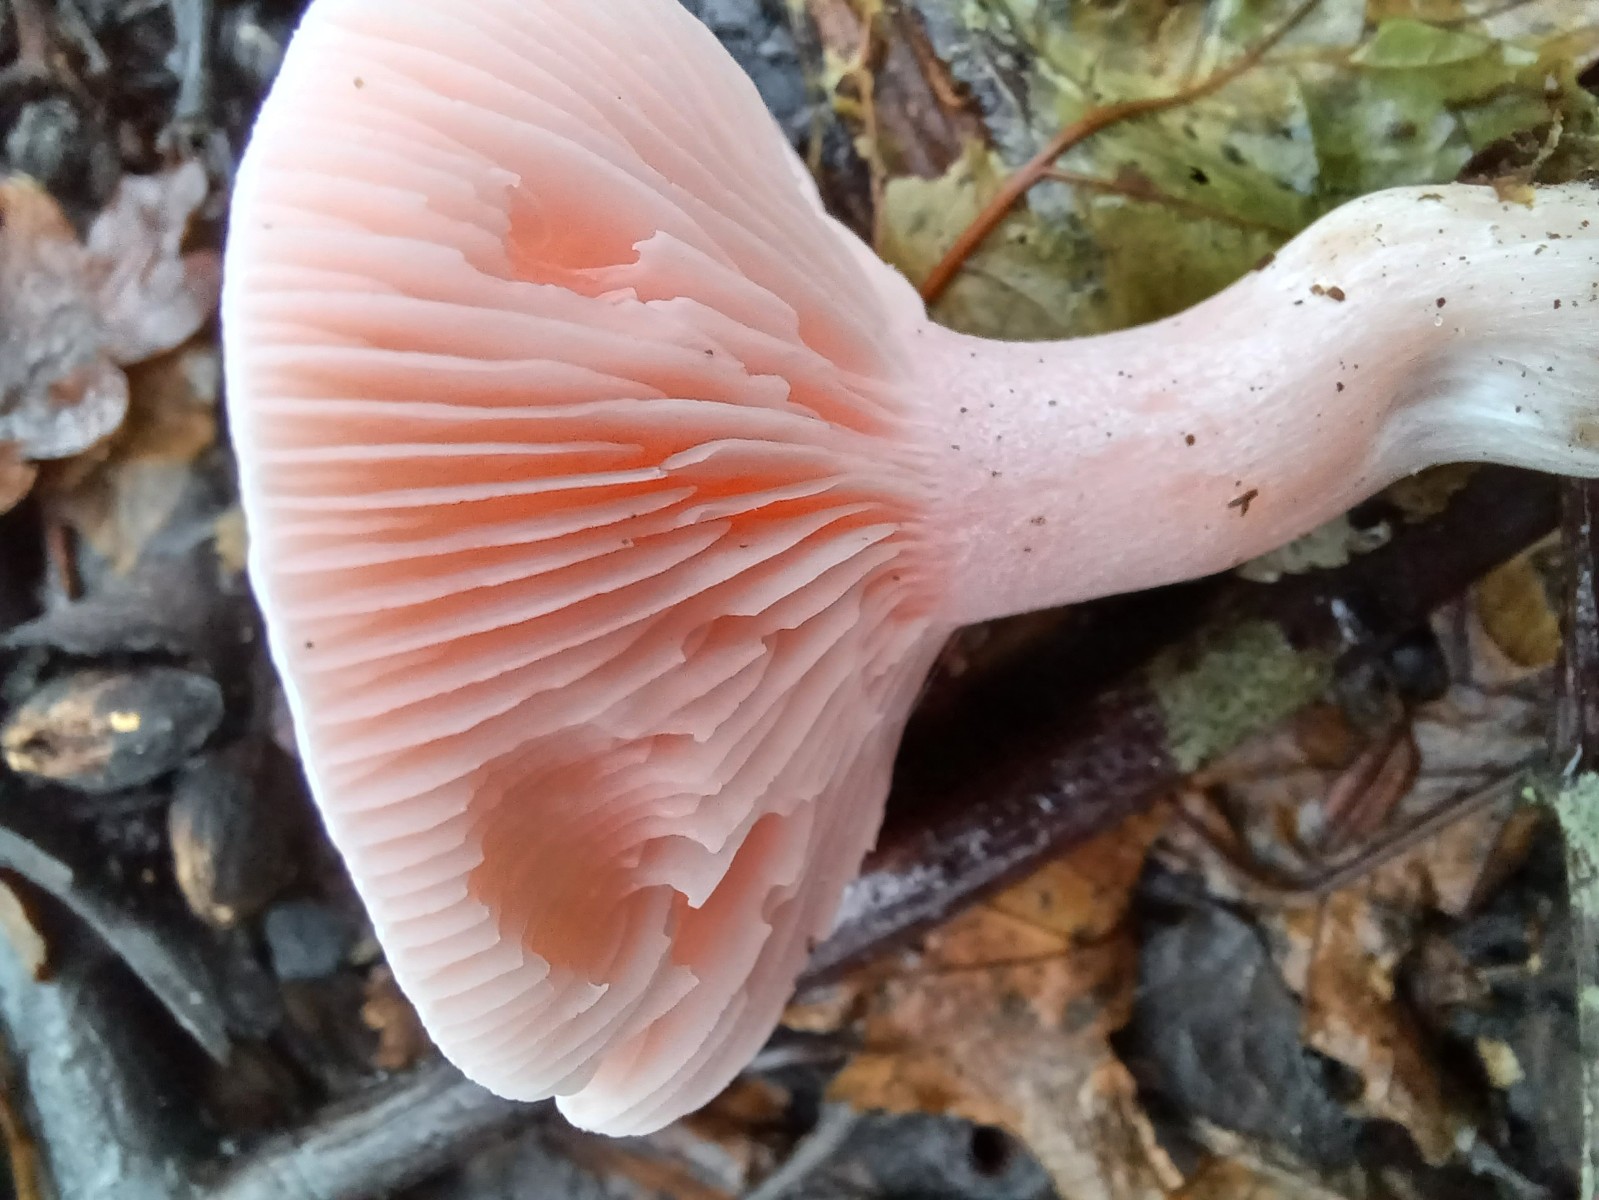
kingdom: Fungi
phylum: Basidiomycota
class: Agaricomycetes
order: Agaricales
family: Tricholomataceae
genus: Pseudoclitopilus
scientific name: Pseudoclitopilus rhodoleucus
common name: rosabladet tragtridderhat
